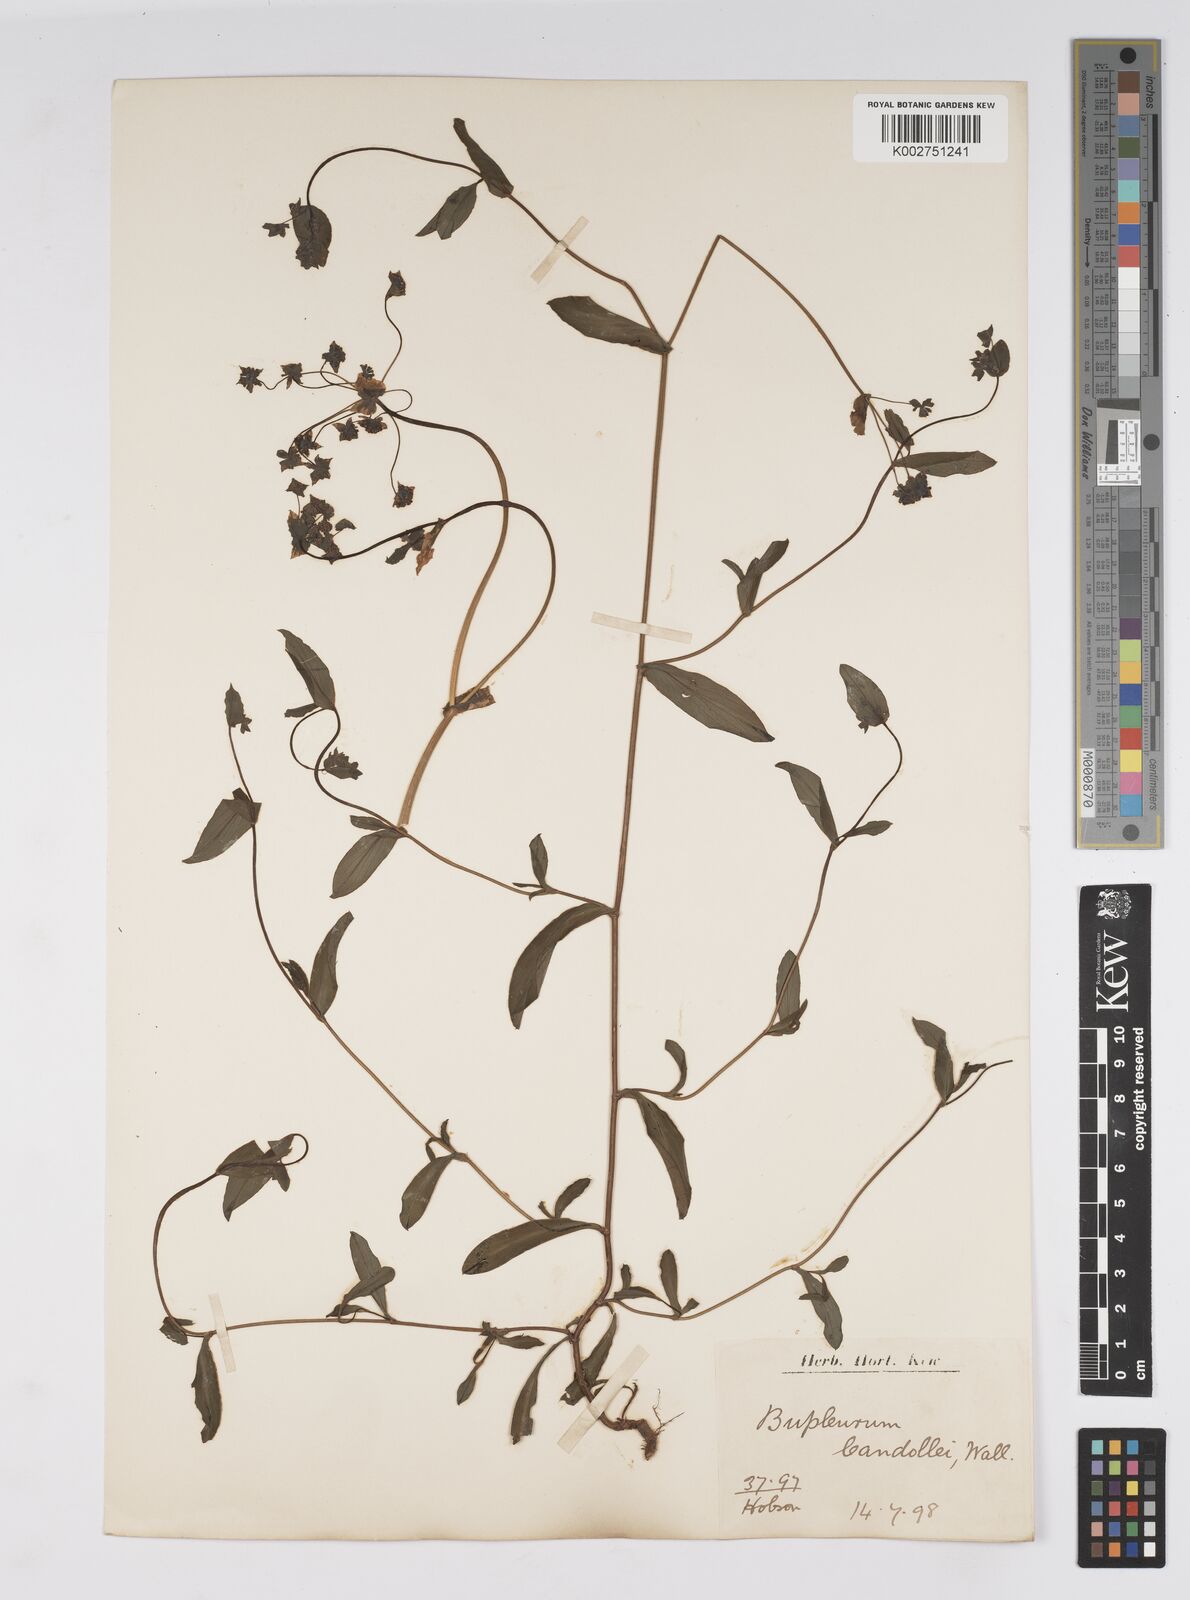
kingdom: Plantae
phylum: Tracheophyta
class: Magnoliopsida
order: Apiales
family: Apiaceae
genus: Bupleurum
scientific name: Bupleurum candollei
